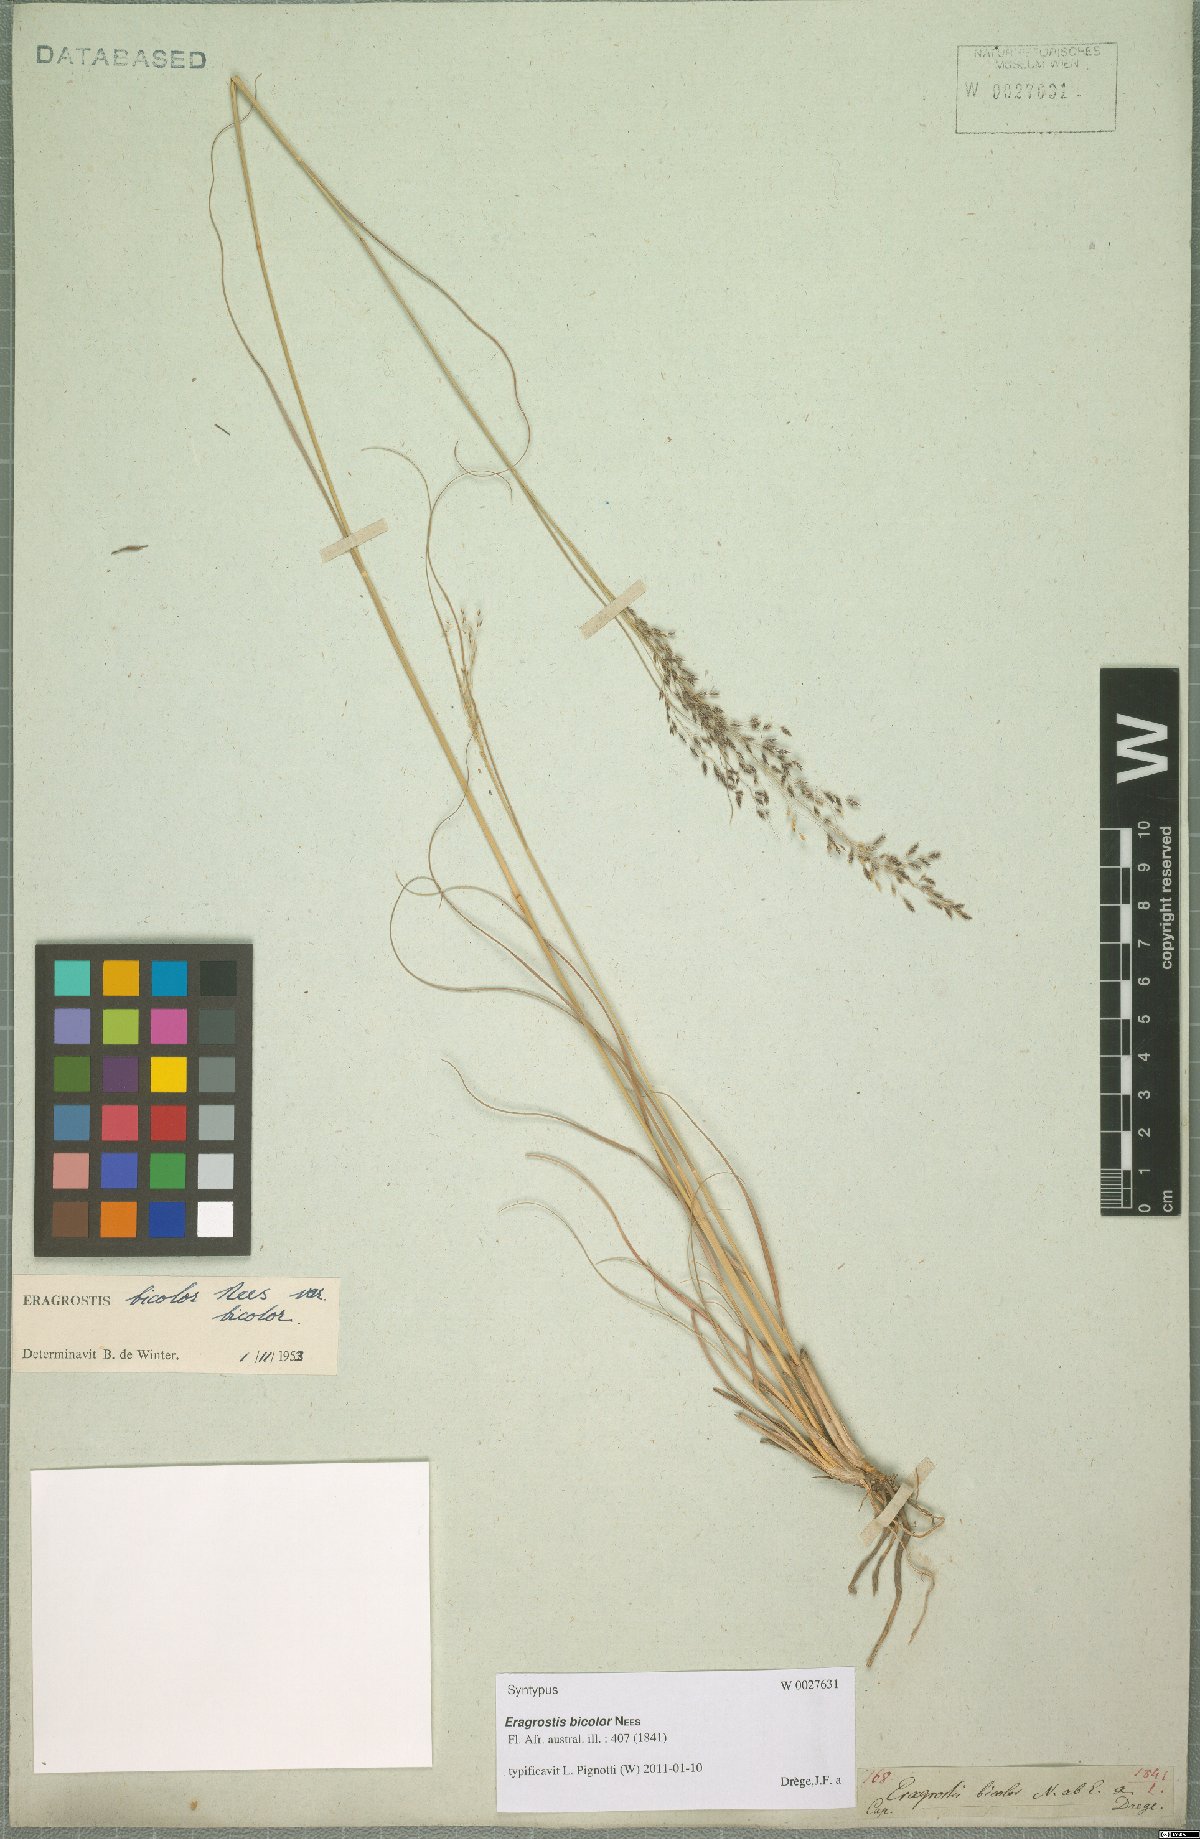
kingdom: Plantae
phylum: Tracheophyta
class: Liliopsida
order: Poales
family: Poaceae
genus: Eragrostis
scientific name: Eragrostis bicolor
